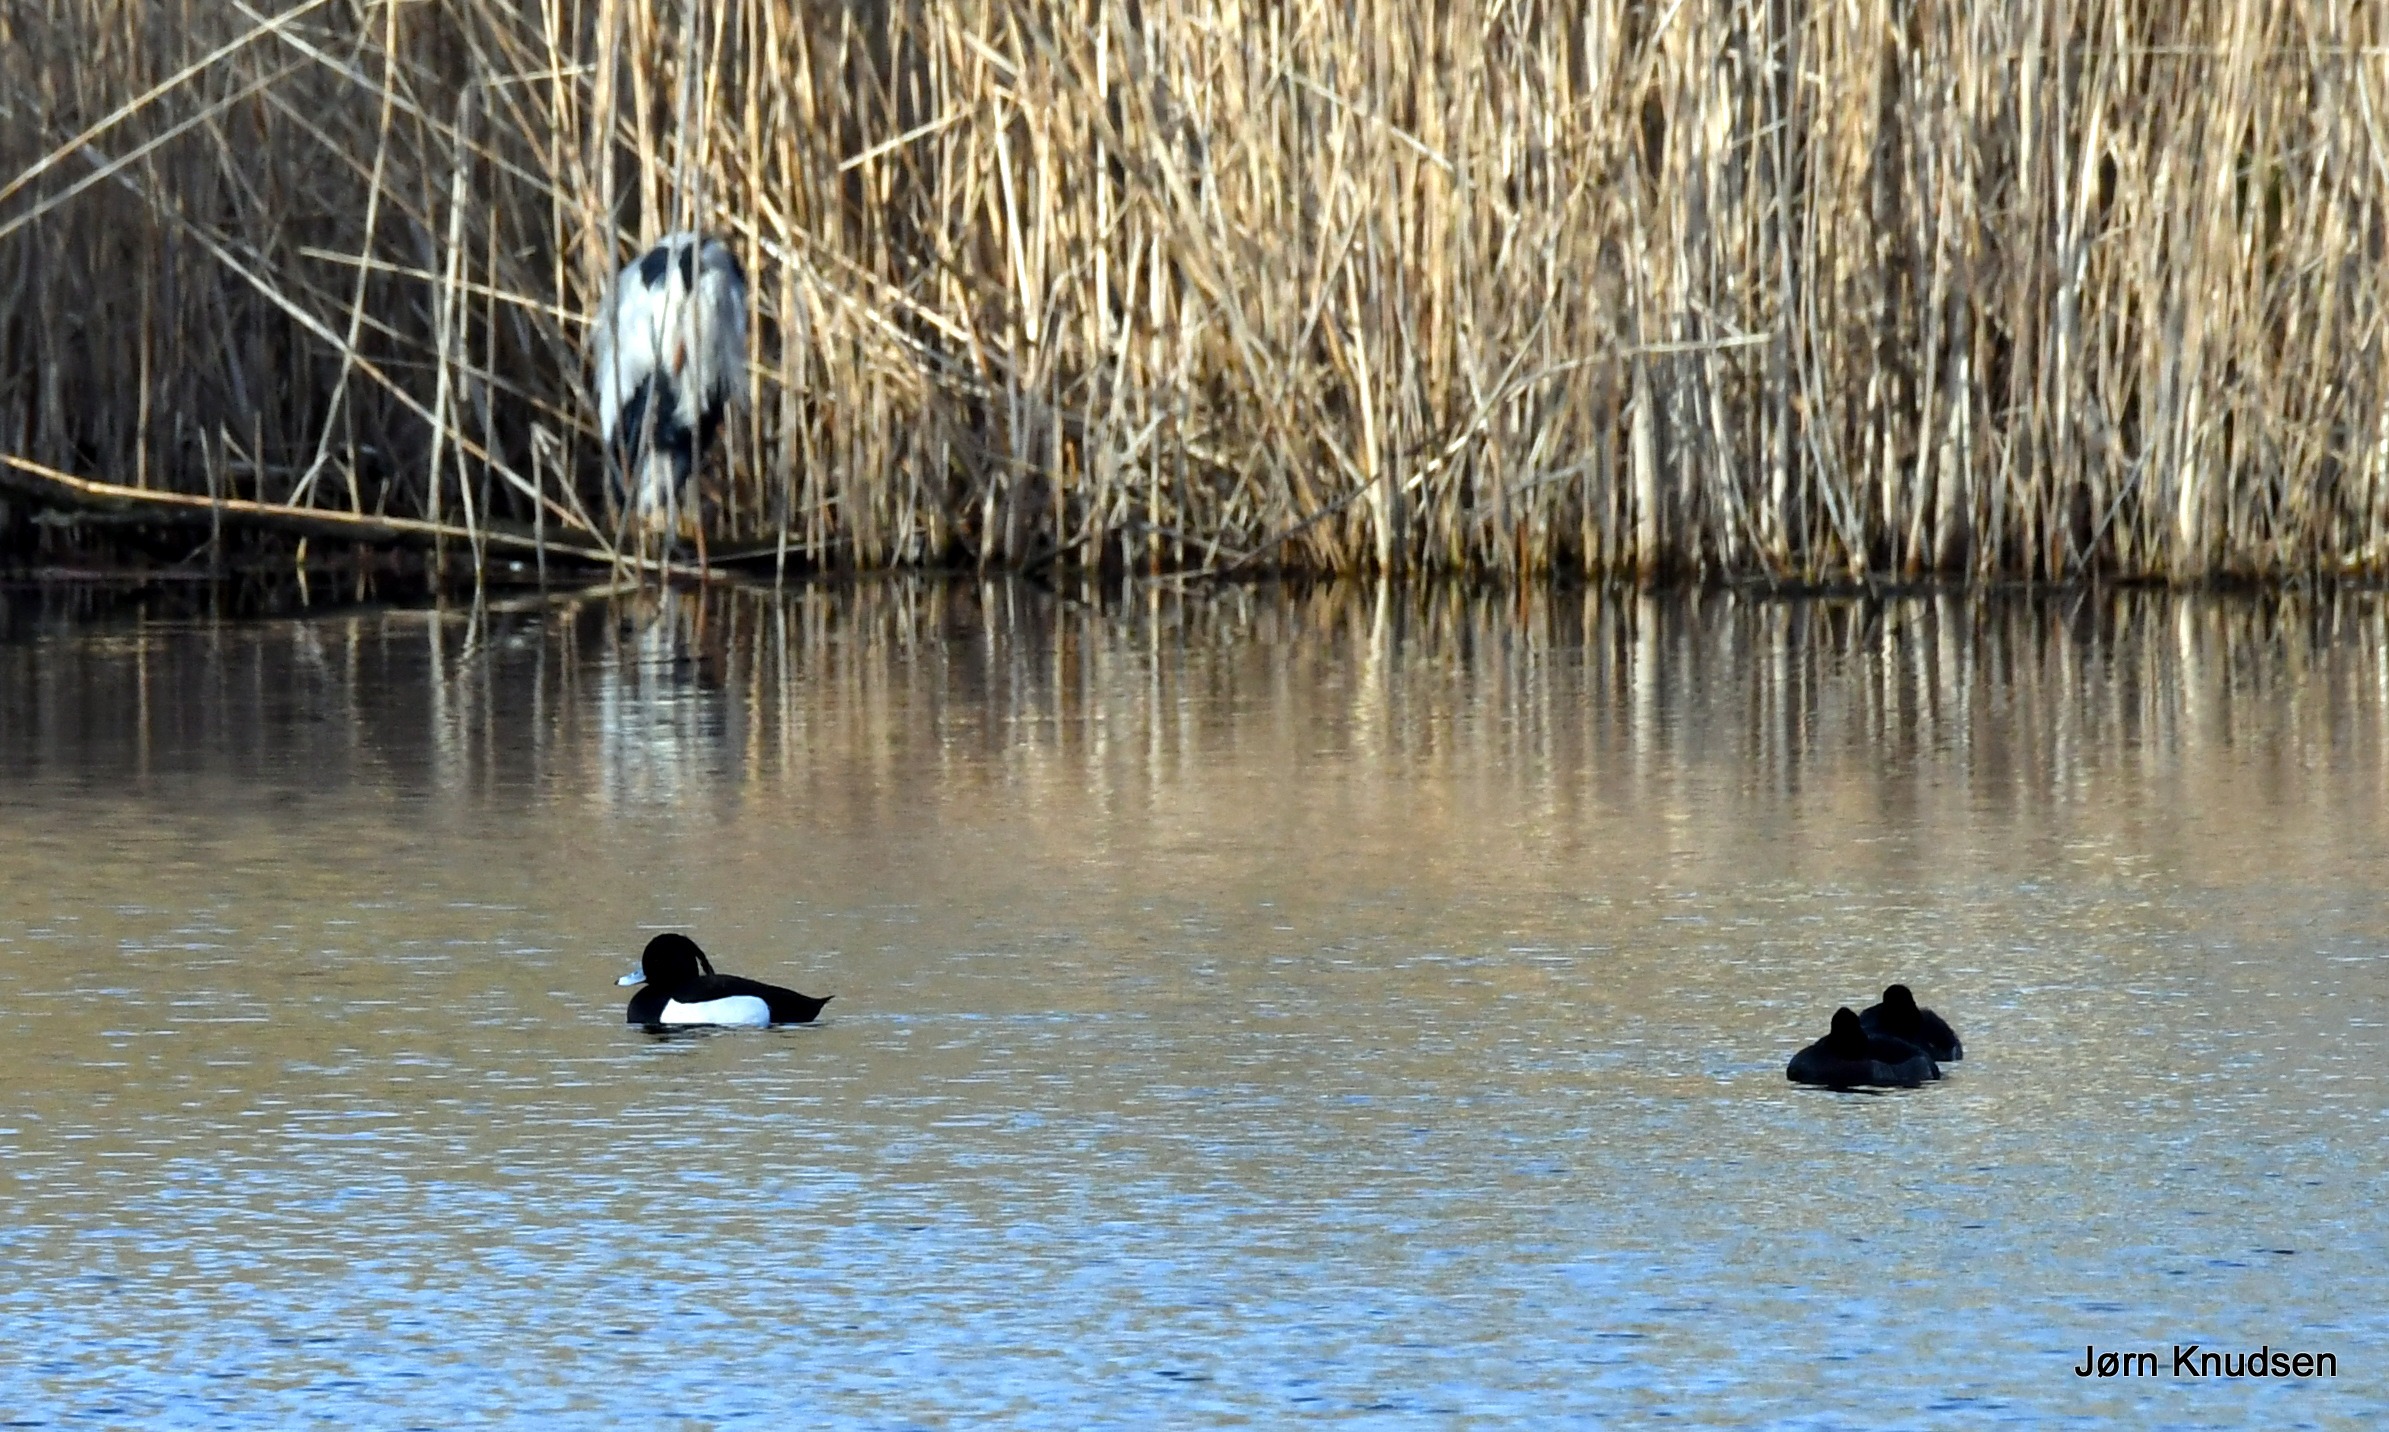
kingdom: Animalia
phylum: Chordata
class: Aves
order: Anseriformes
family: Anatidae
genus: Aythya
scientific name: Aythya fuligula
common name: Troldand
